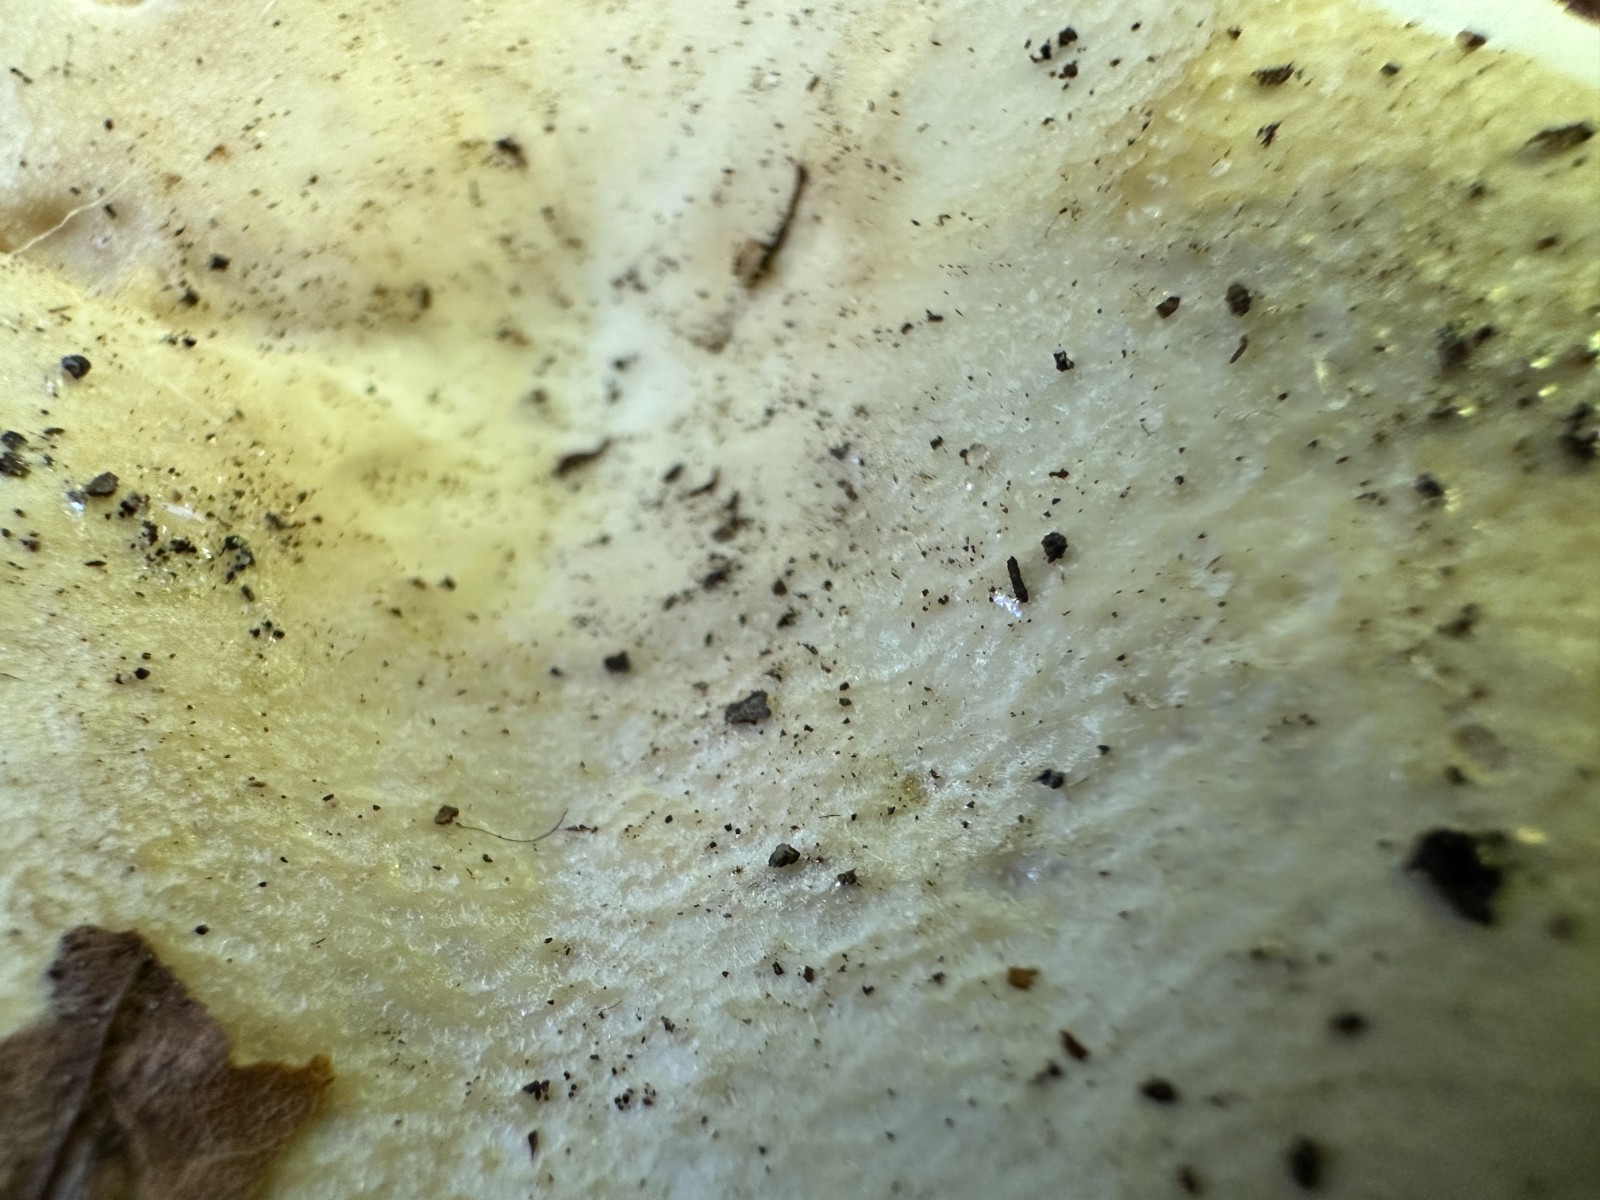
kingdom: Fungi
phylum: Basidiomycota
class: Agaricomycetes
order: Russulales
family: Russulaceae
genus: Russula
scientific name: Russula roseoaurantia
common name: kornet skørhat
